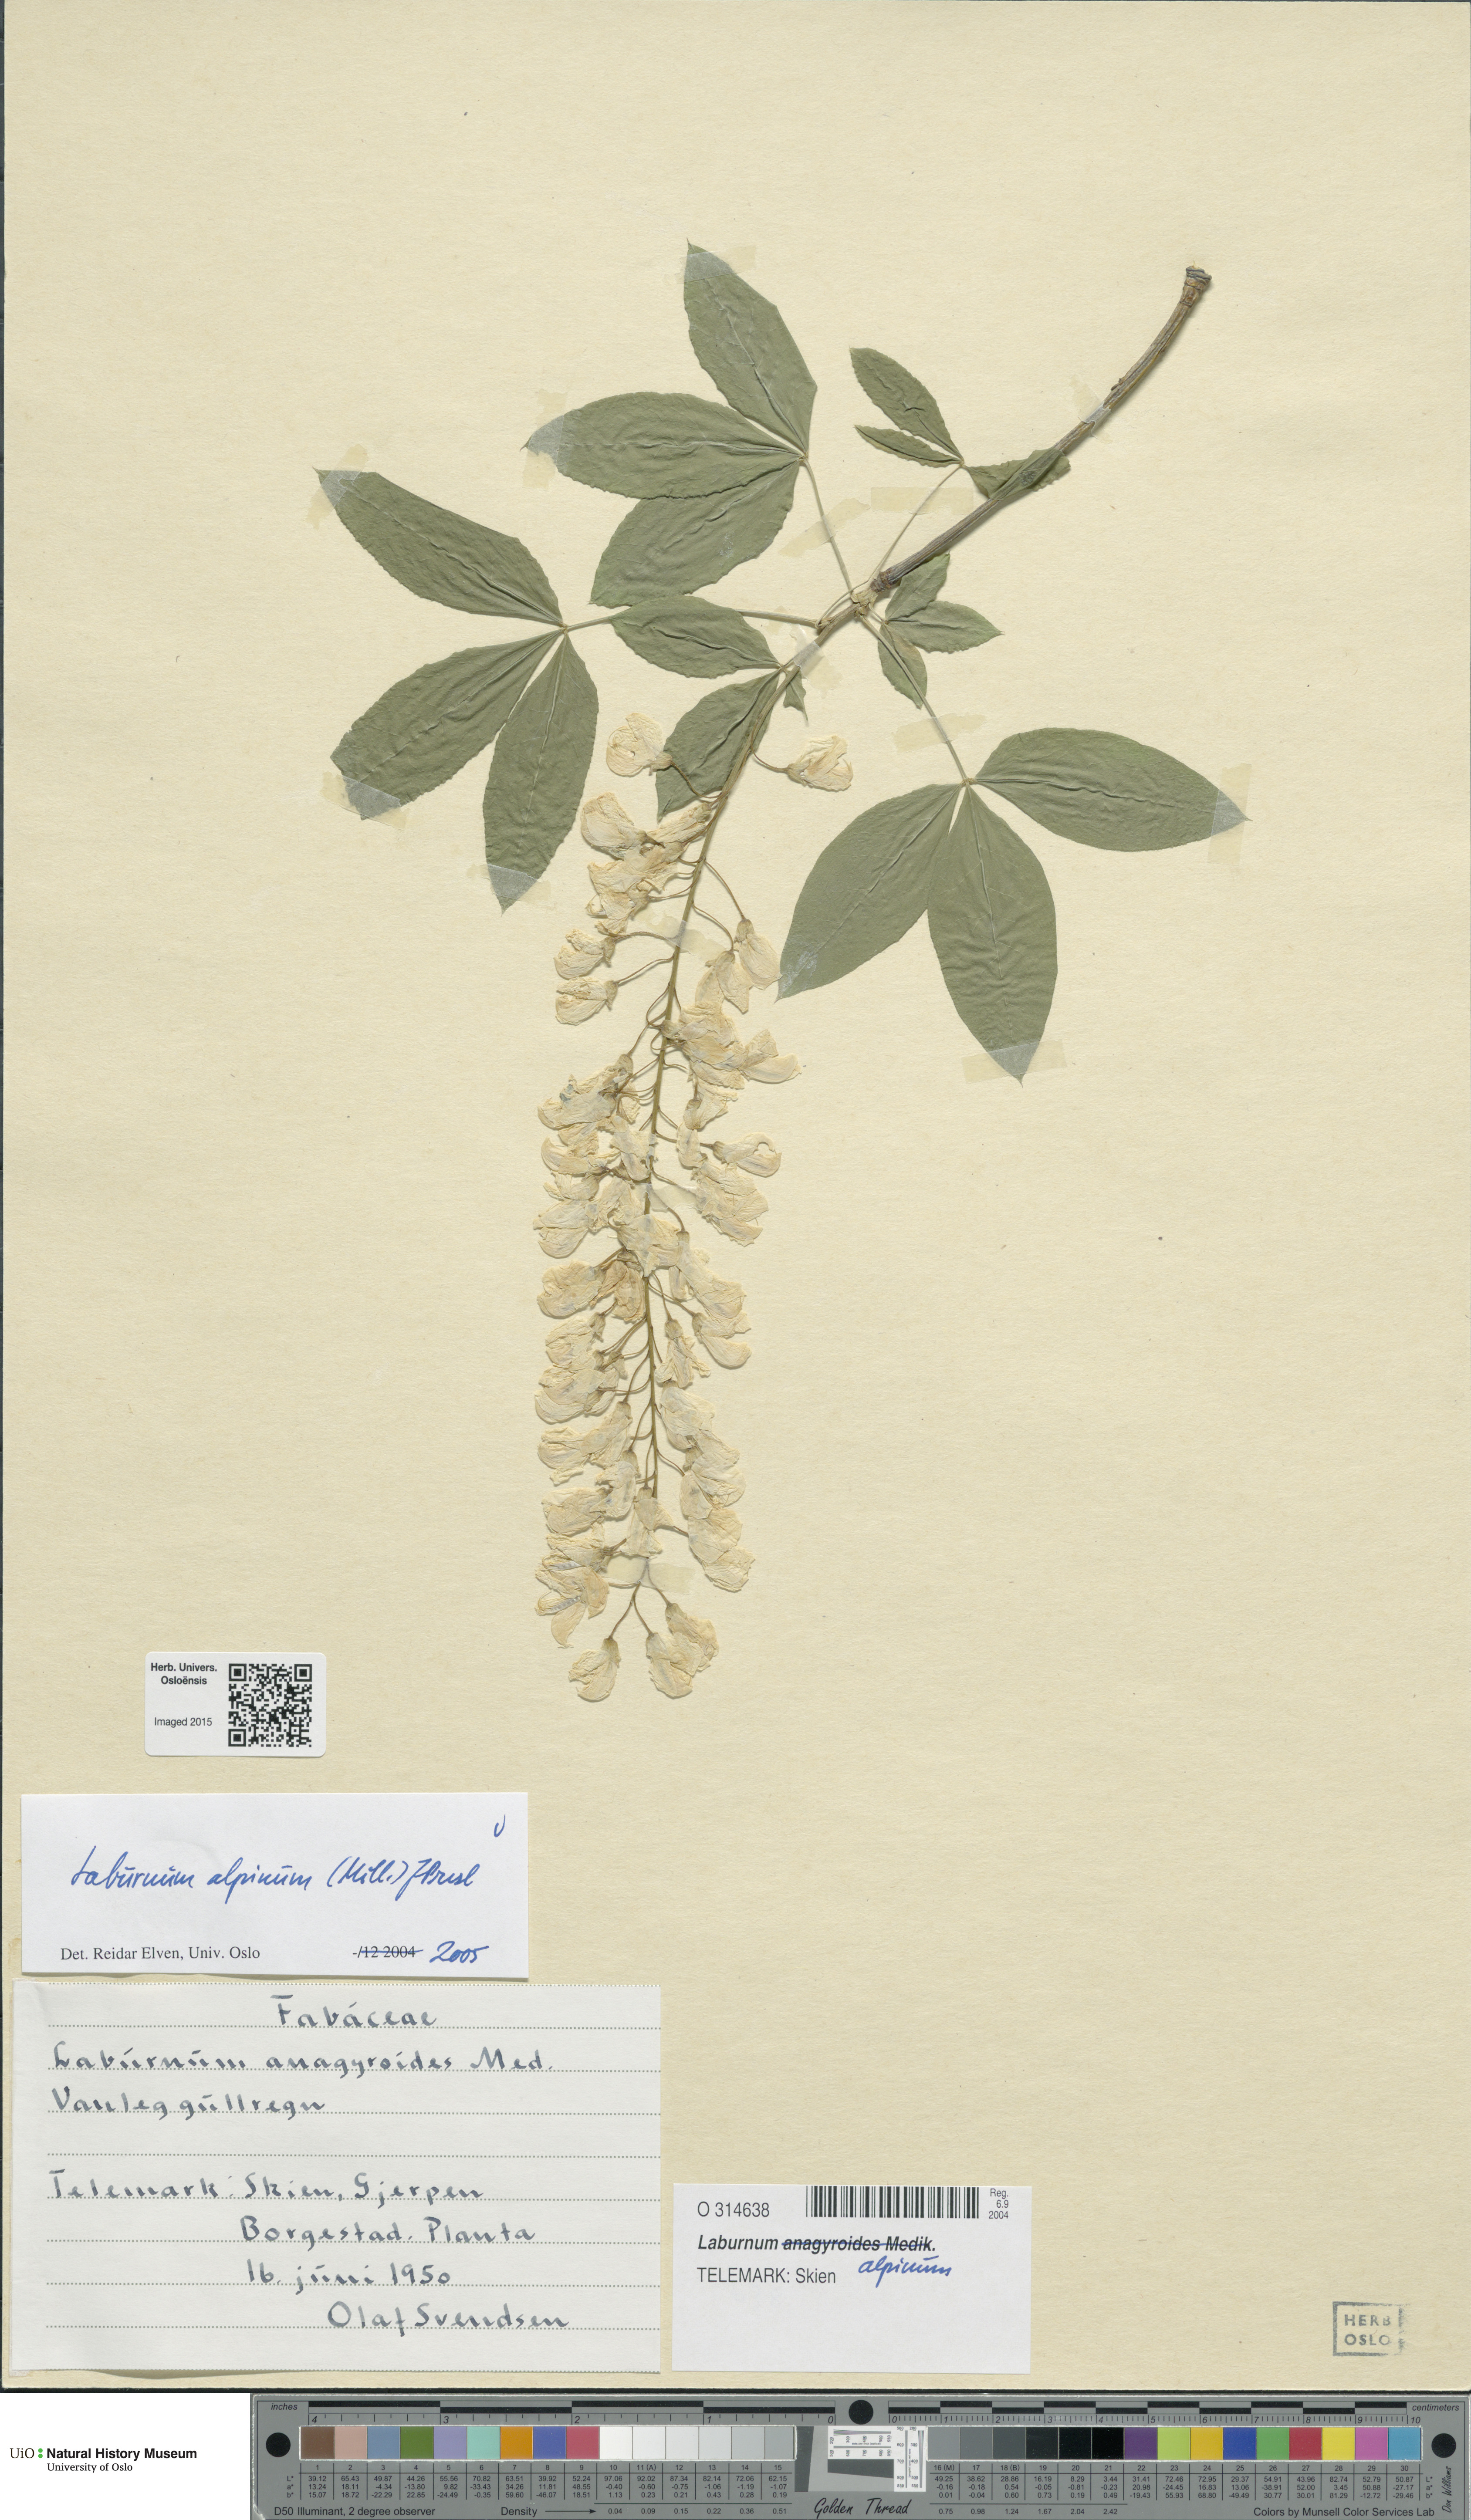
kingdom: Plantae
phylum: Tracheophyta
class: Magnoliopsida
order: Fabales
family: Fabaceae
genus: Laburnum
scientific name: Laburnum alpinum
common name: Scottish laburnum
